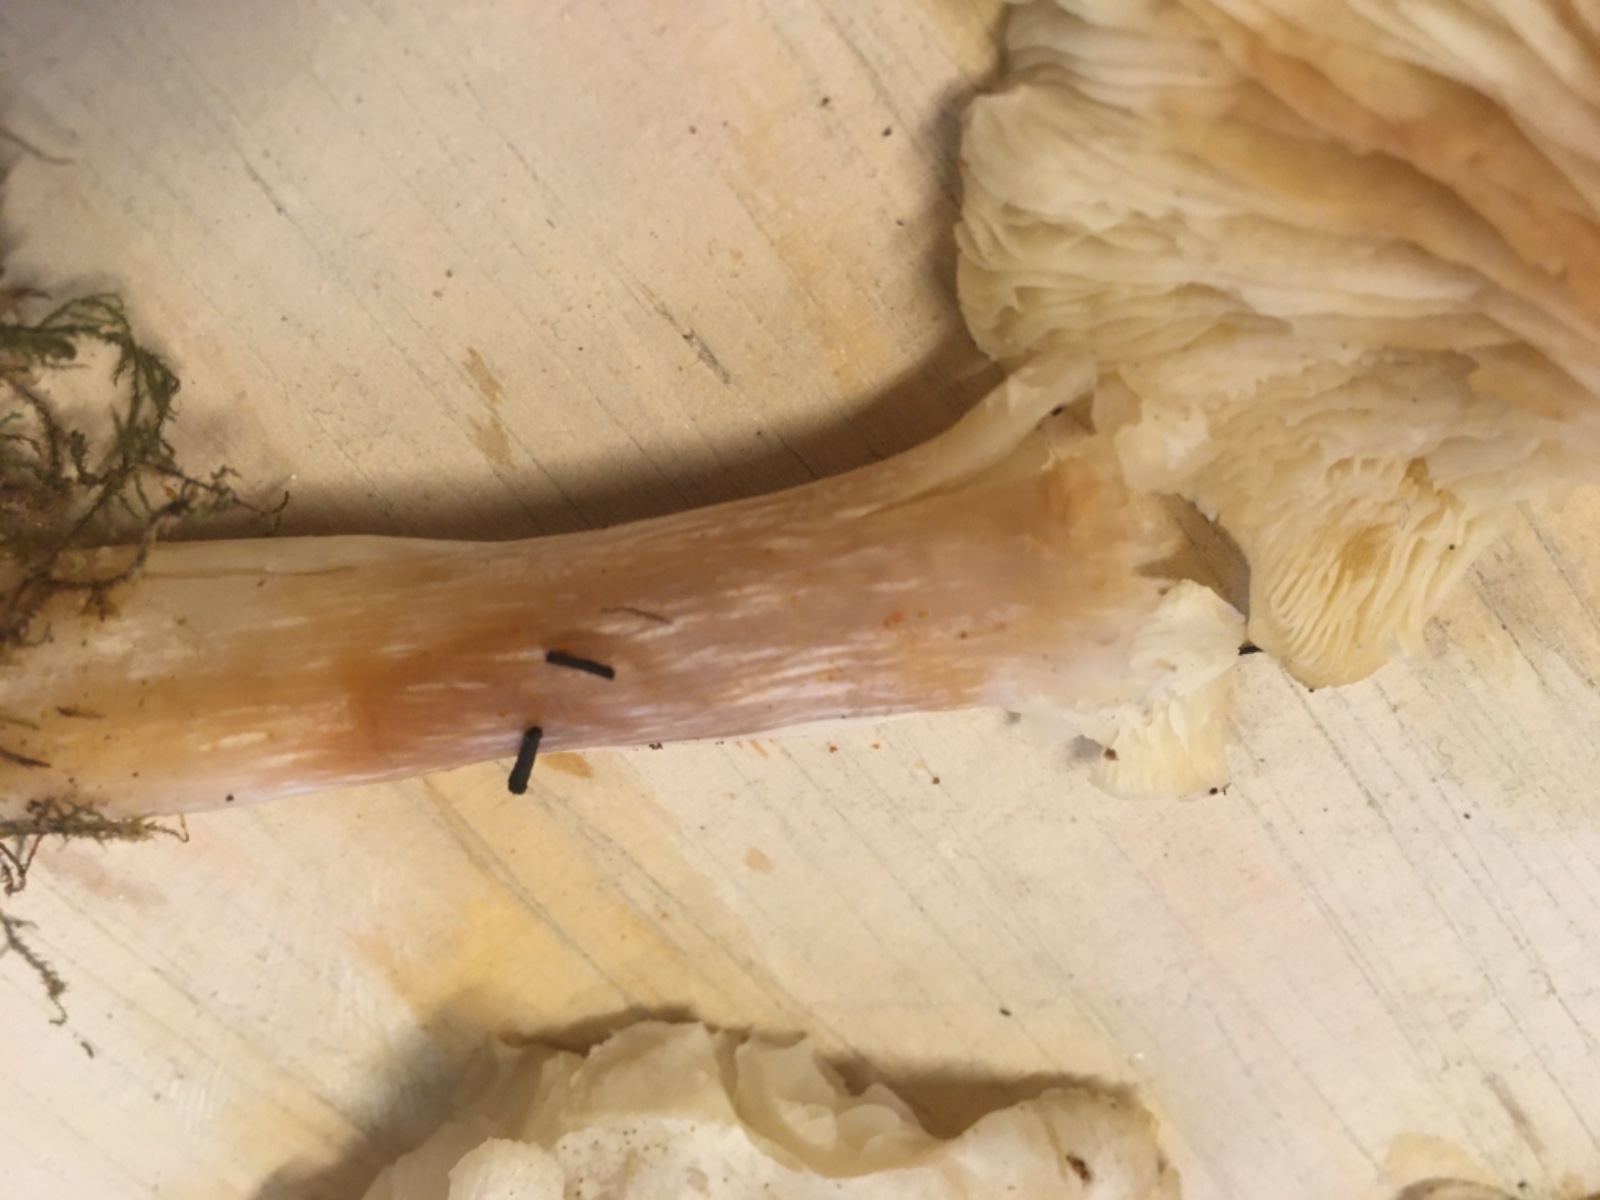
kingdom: Fungi
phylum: Basidiomycota
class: Agaricomycetes
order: Agaricales
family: Tricholomataceae
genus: Leucocybe
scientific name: Leucocybe connata
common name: knippe-tragthat
